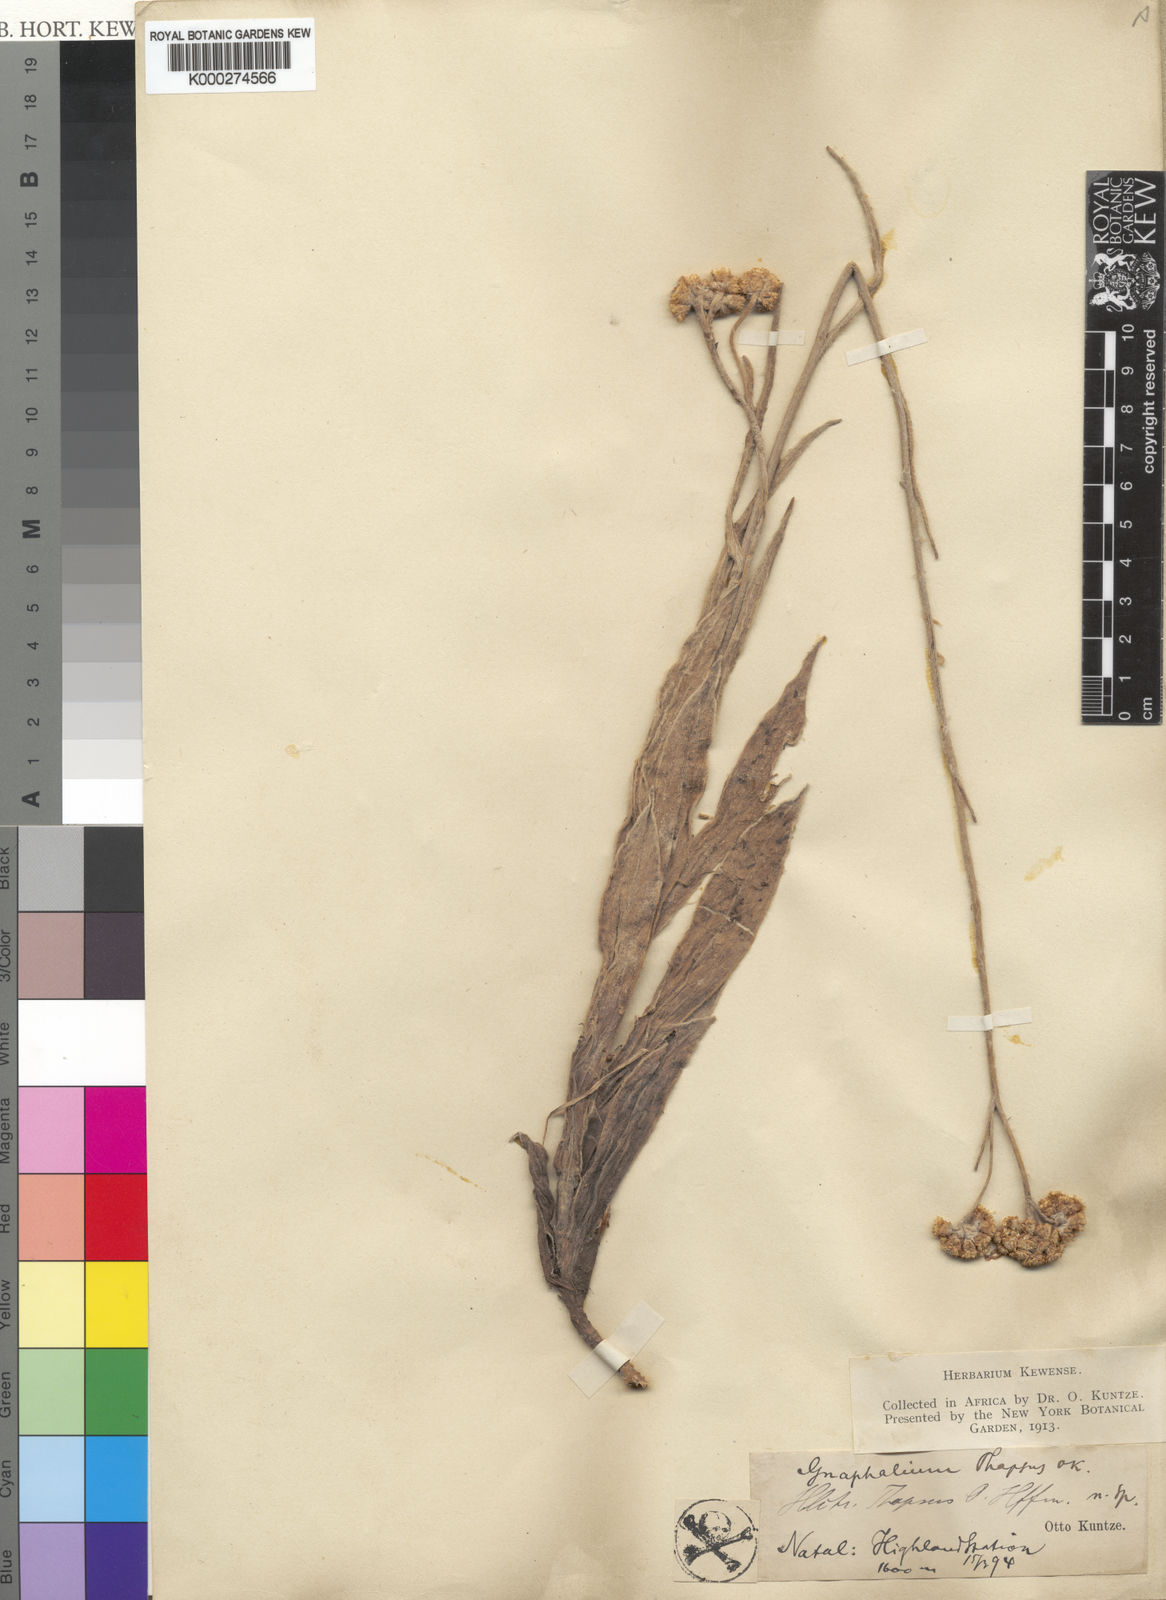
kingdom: Plantae
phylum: Tracheophyta
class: Magnoliopsida
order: Asterales
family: Asteraceae
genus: Helichrysum
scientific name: Helichrysum thapsus
